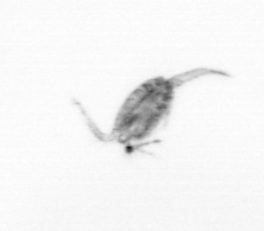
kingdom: Animalia
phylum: Arthropoda
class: Copepoda
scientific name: Copepoda
